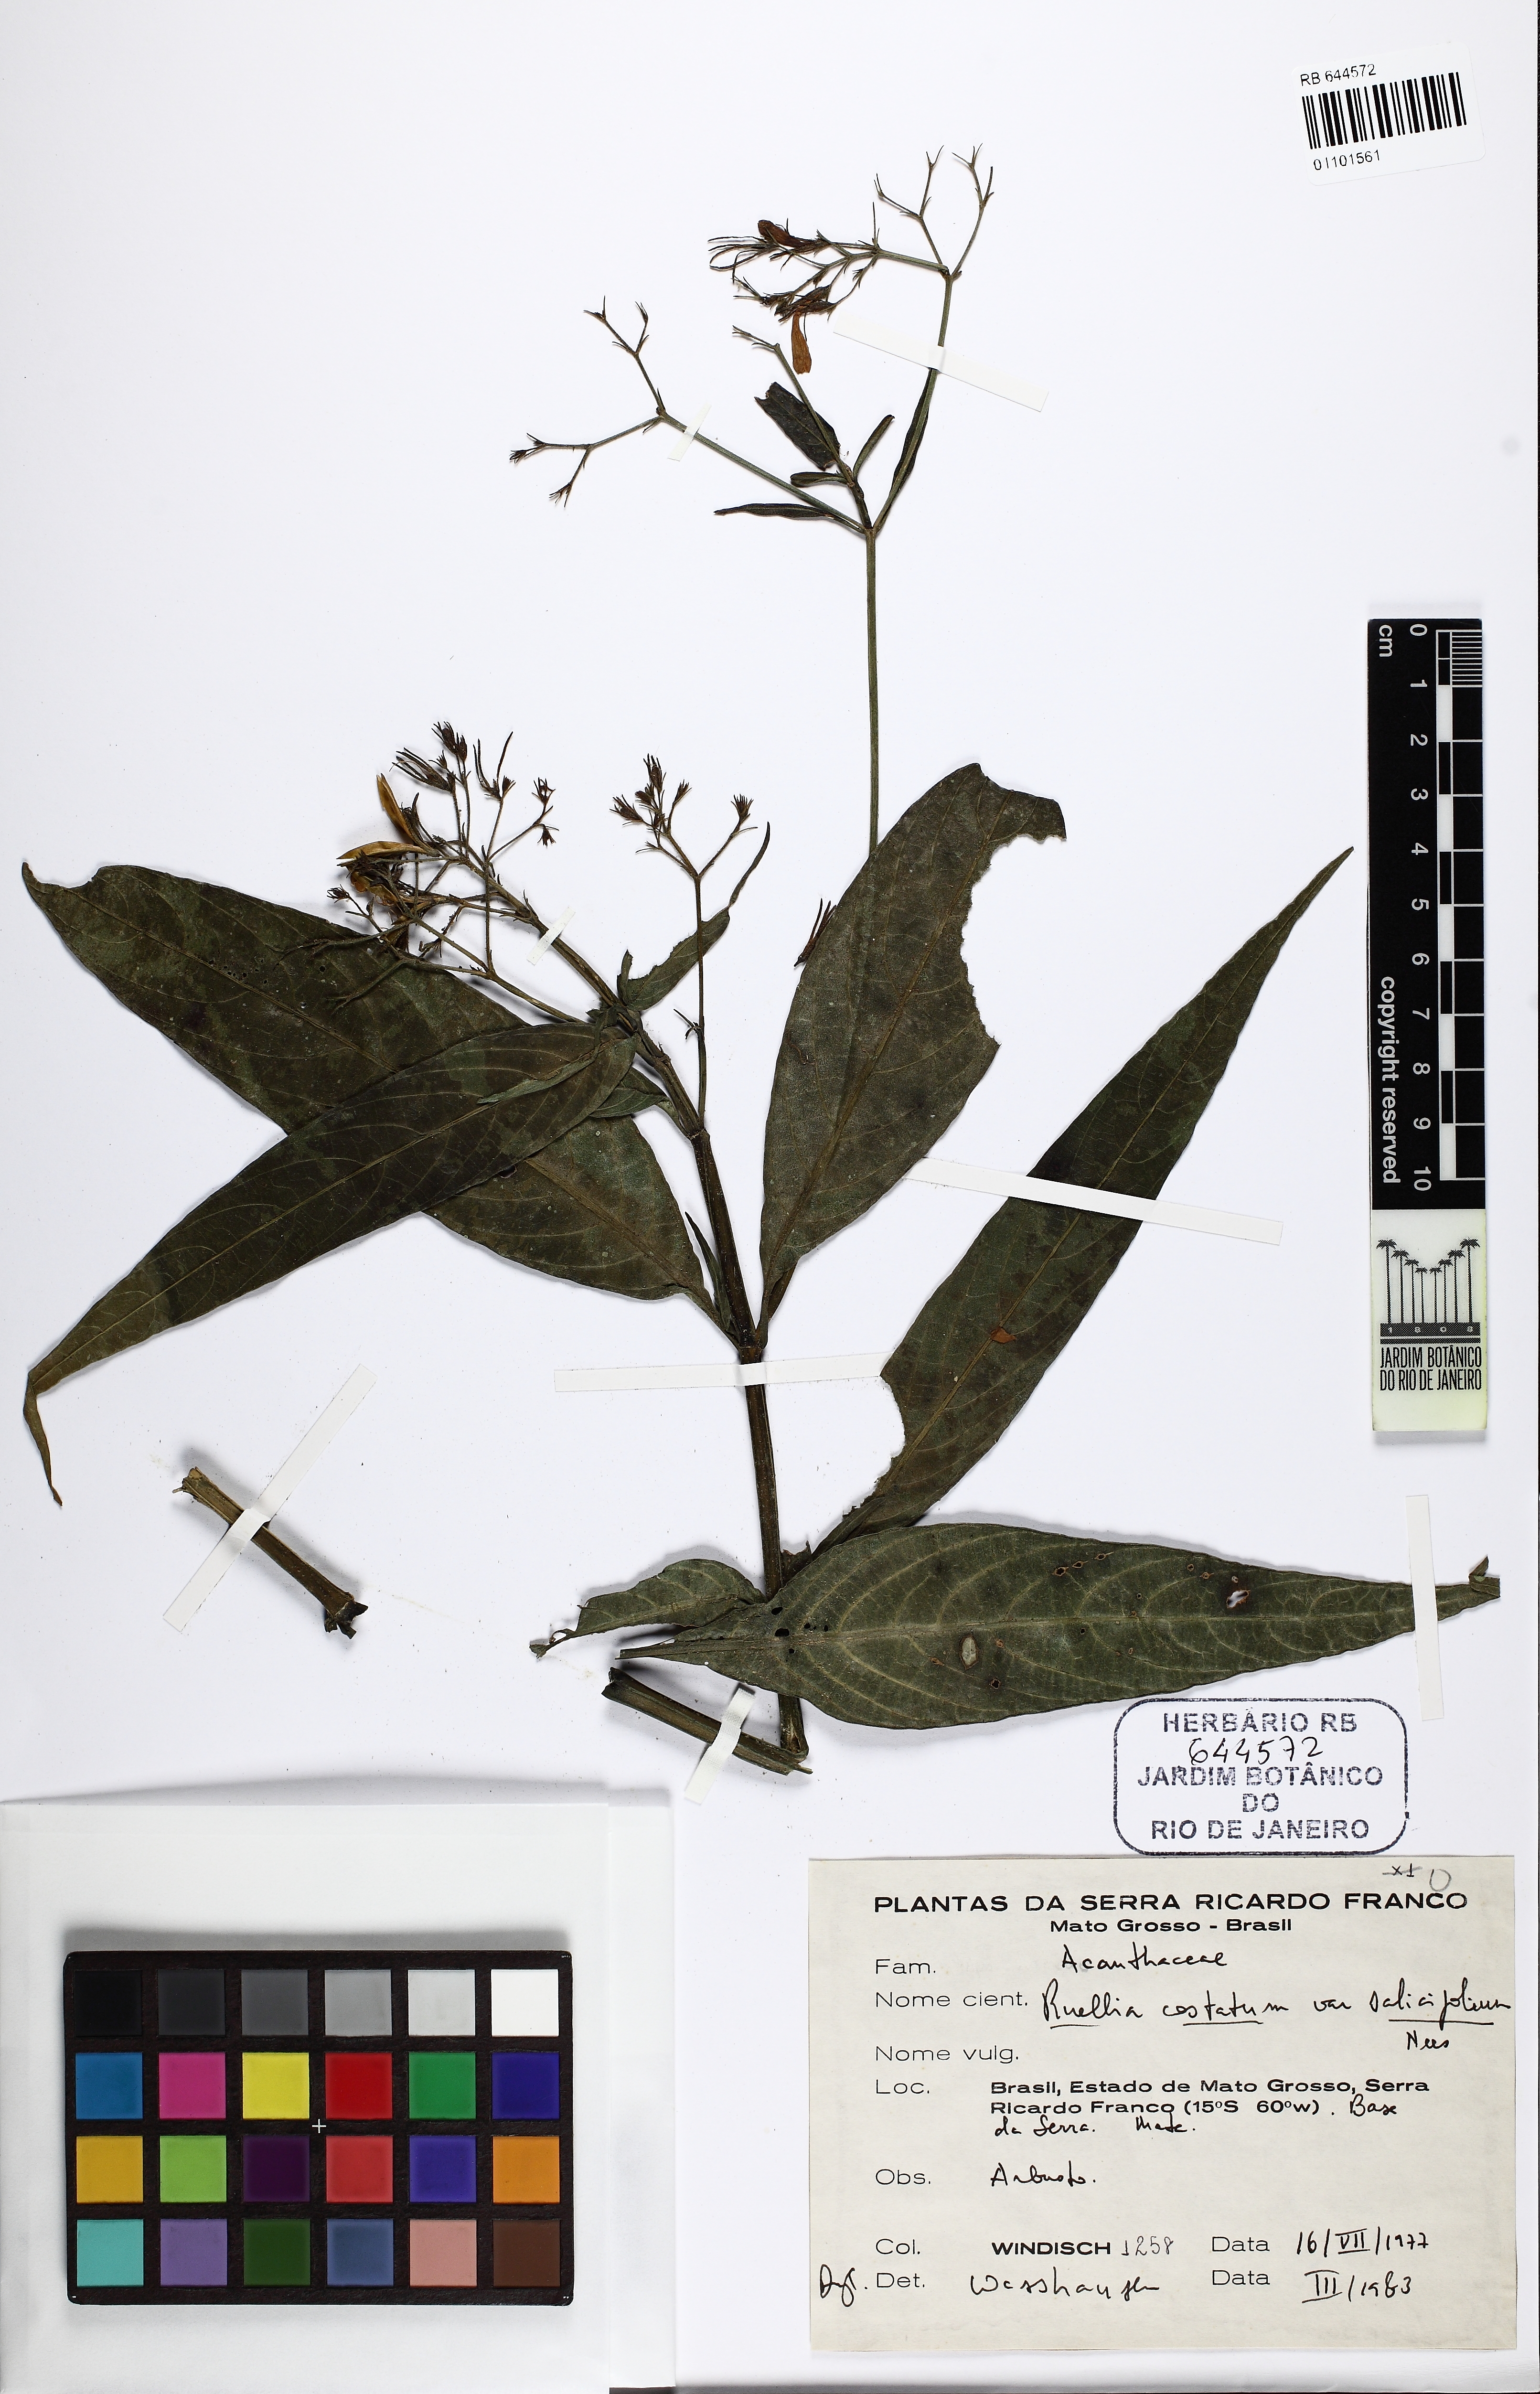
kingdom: Plantae
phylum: Tracheophyta
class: Magnoliopsida
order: Lamiales
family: Acanthaceae
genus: Ruellia
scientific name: Ruellia costata
